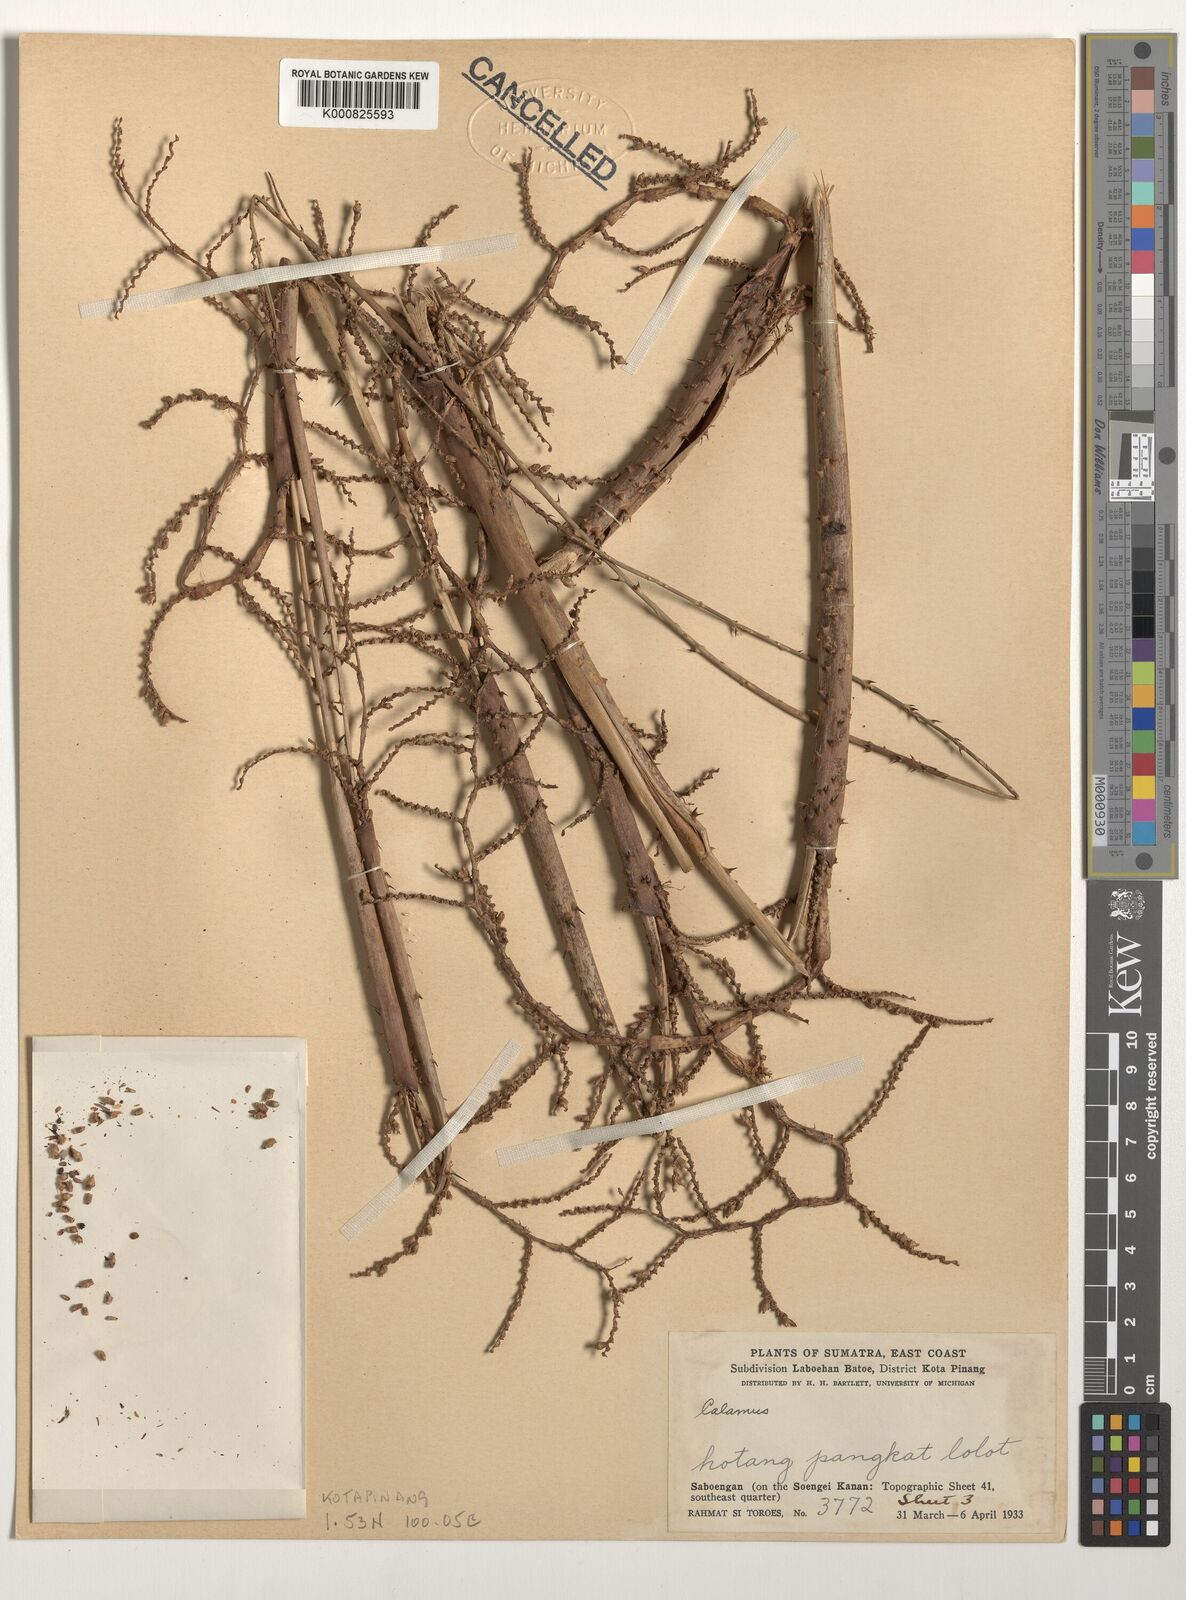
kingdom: Plantae
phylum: Tracheophyta
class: Liliopsida
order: Arecales
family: Arecaceae
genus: Calamus
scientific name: Calamus
